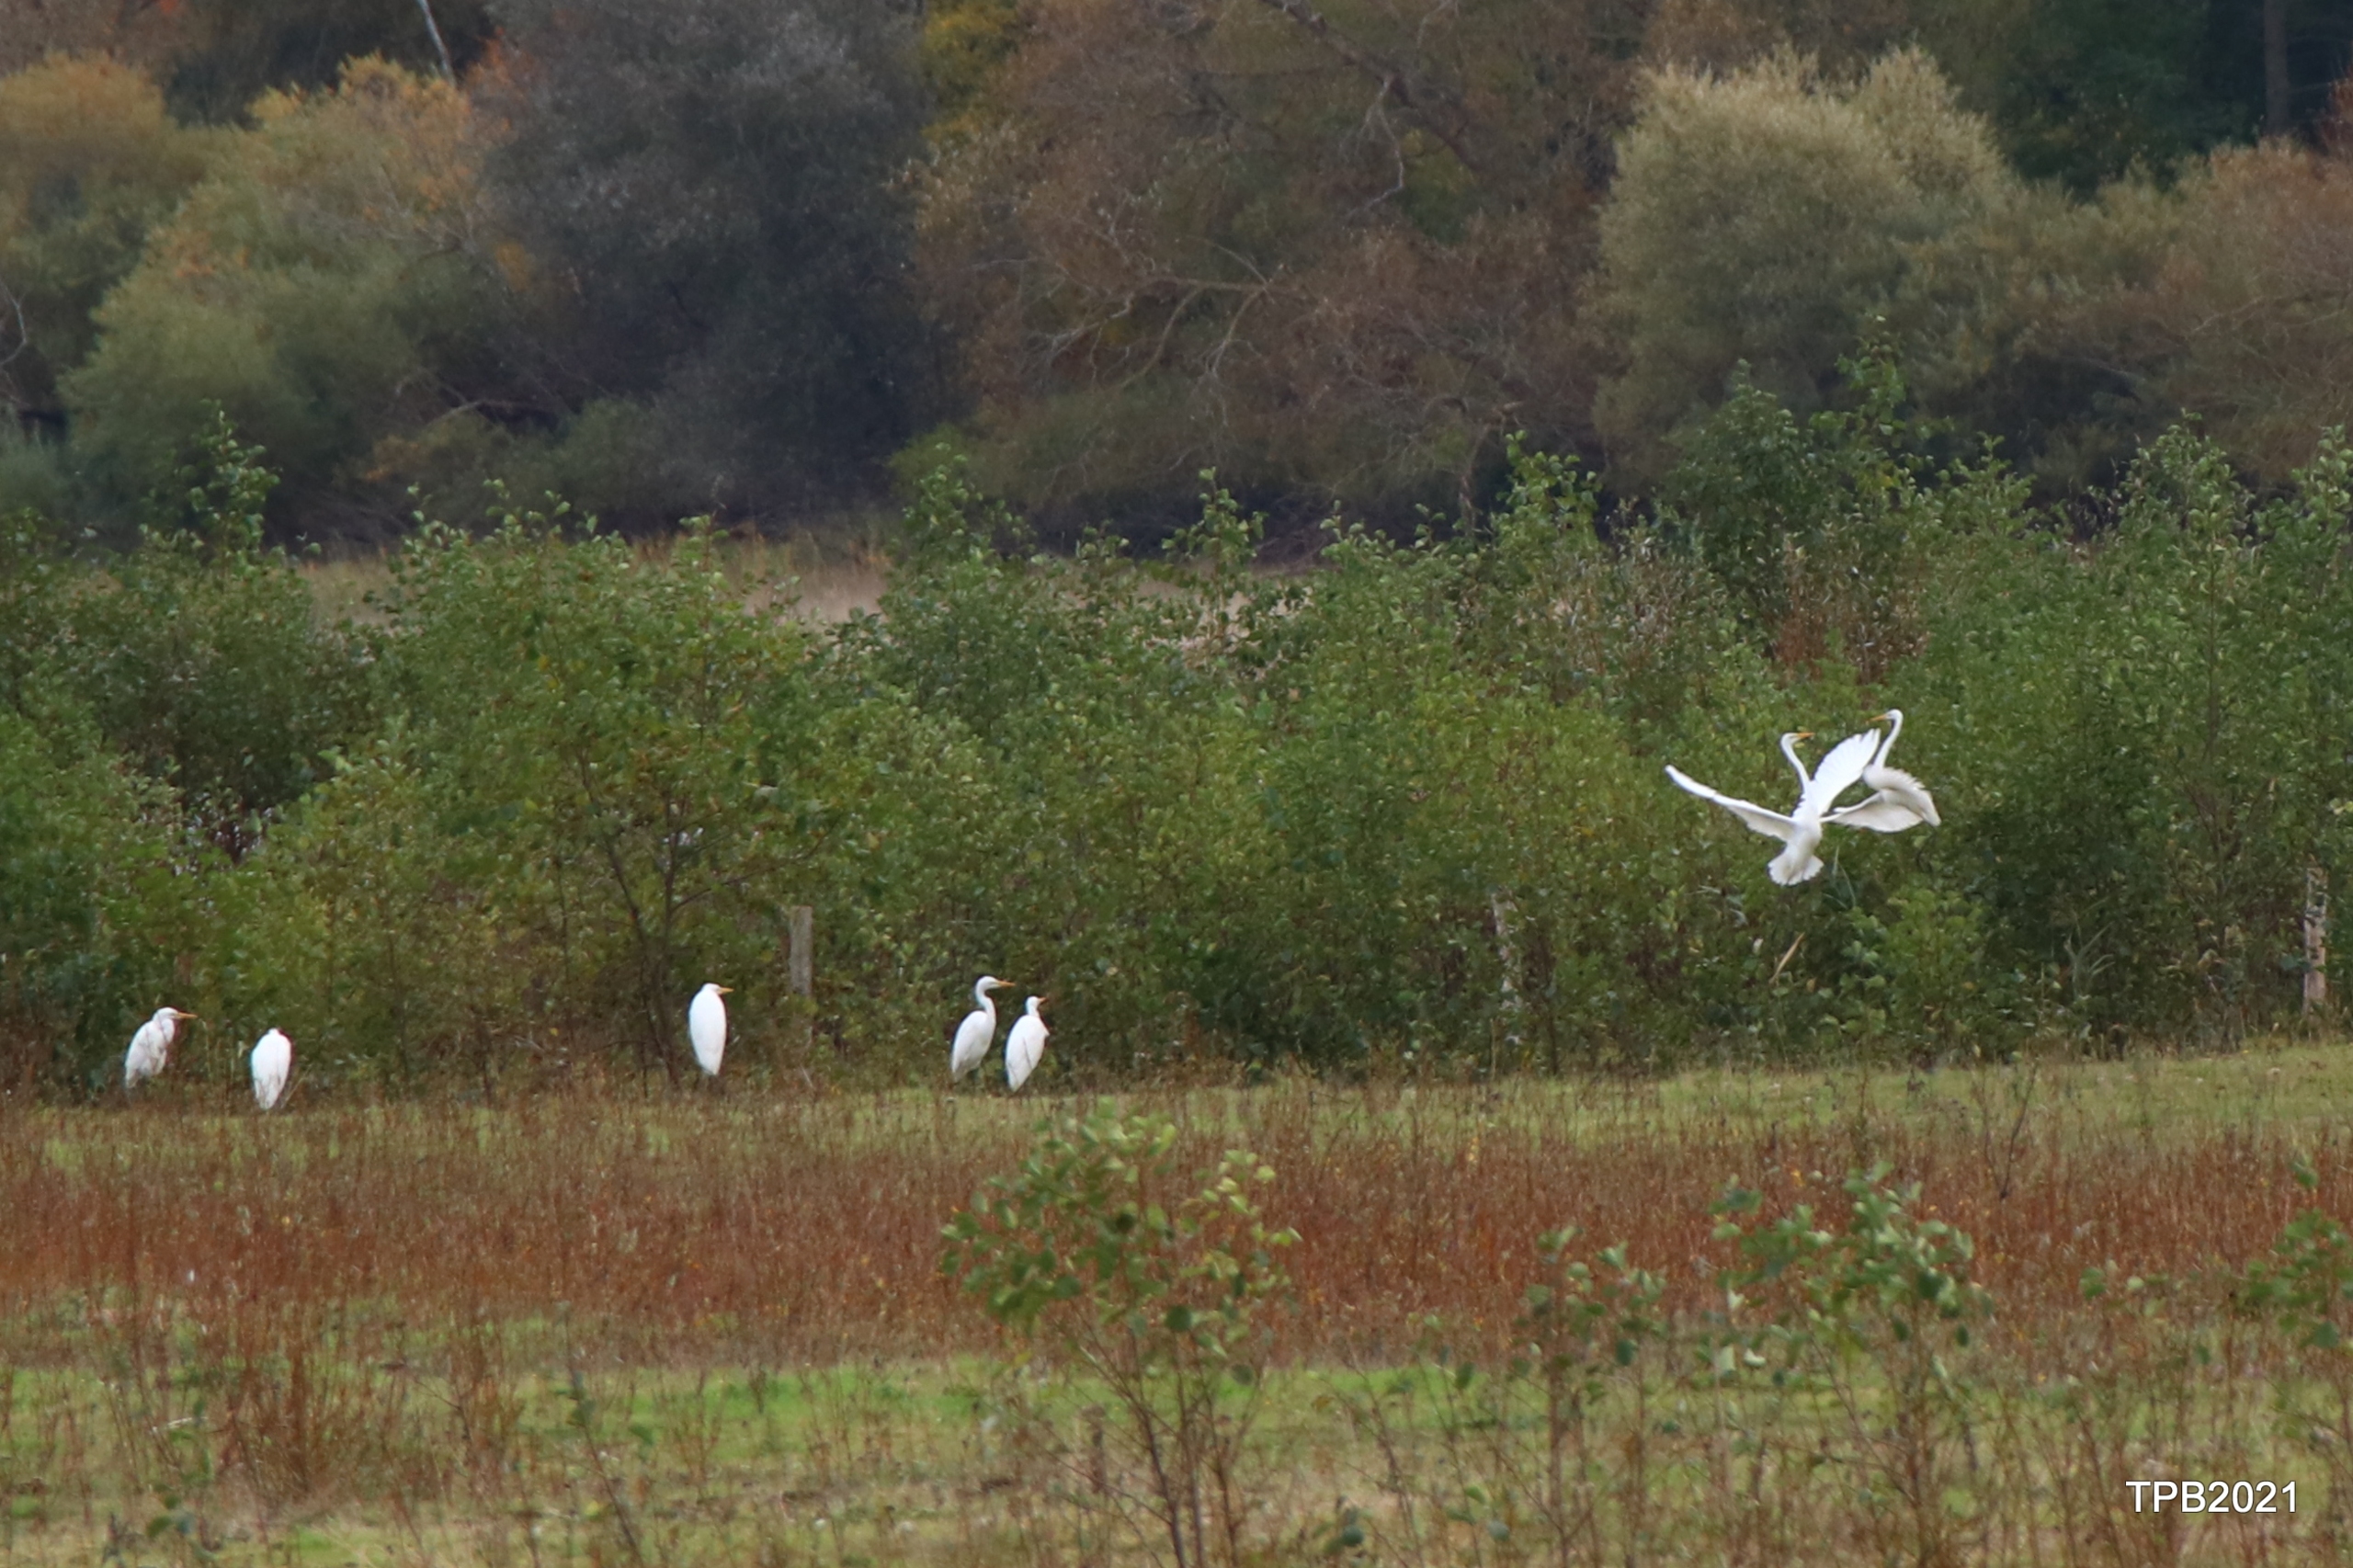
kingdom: Animalia
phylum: Chordata
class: Aves
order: Pelecaniformes
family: Ardeidae
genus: Ardea
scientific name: Ardea alba
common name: Sølvhejre
